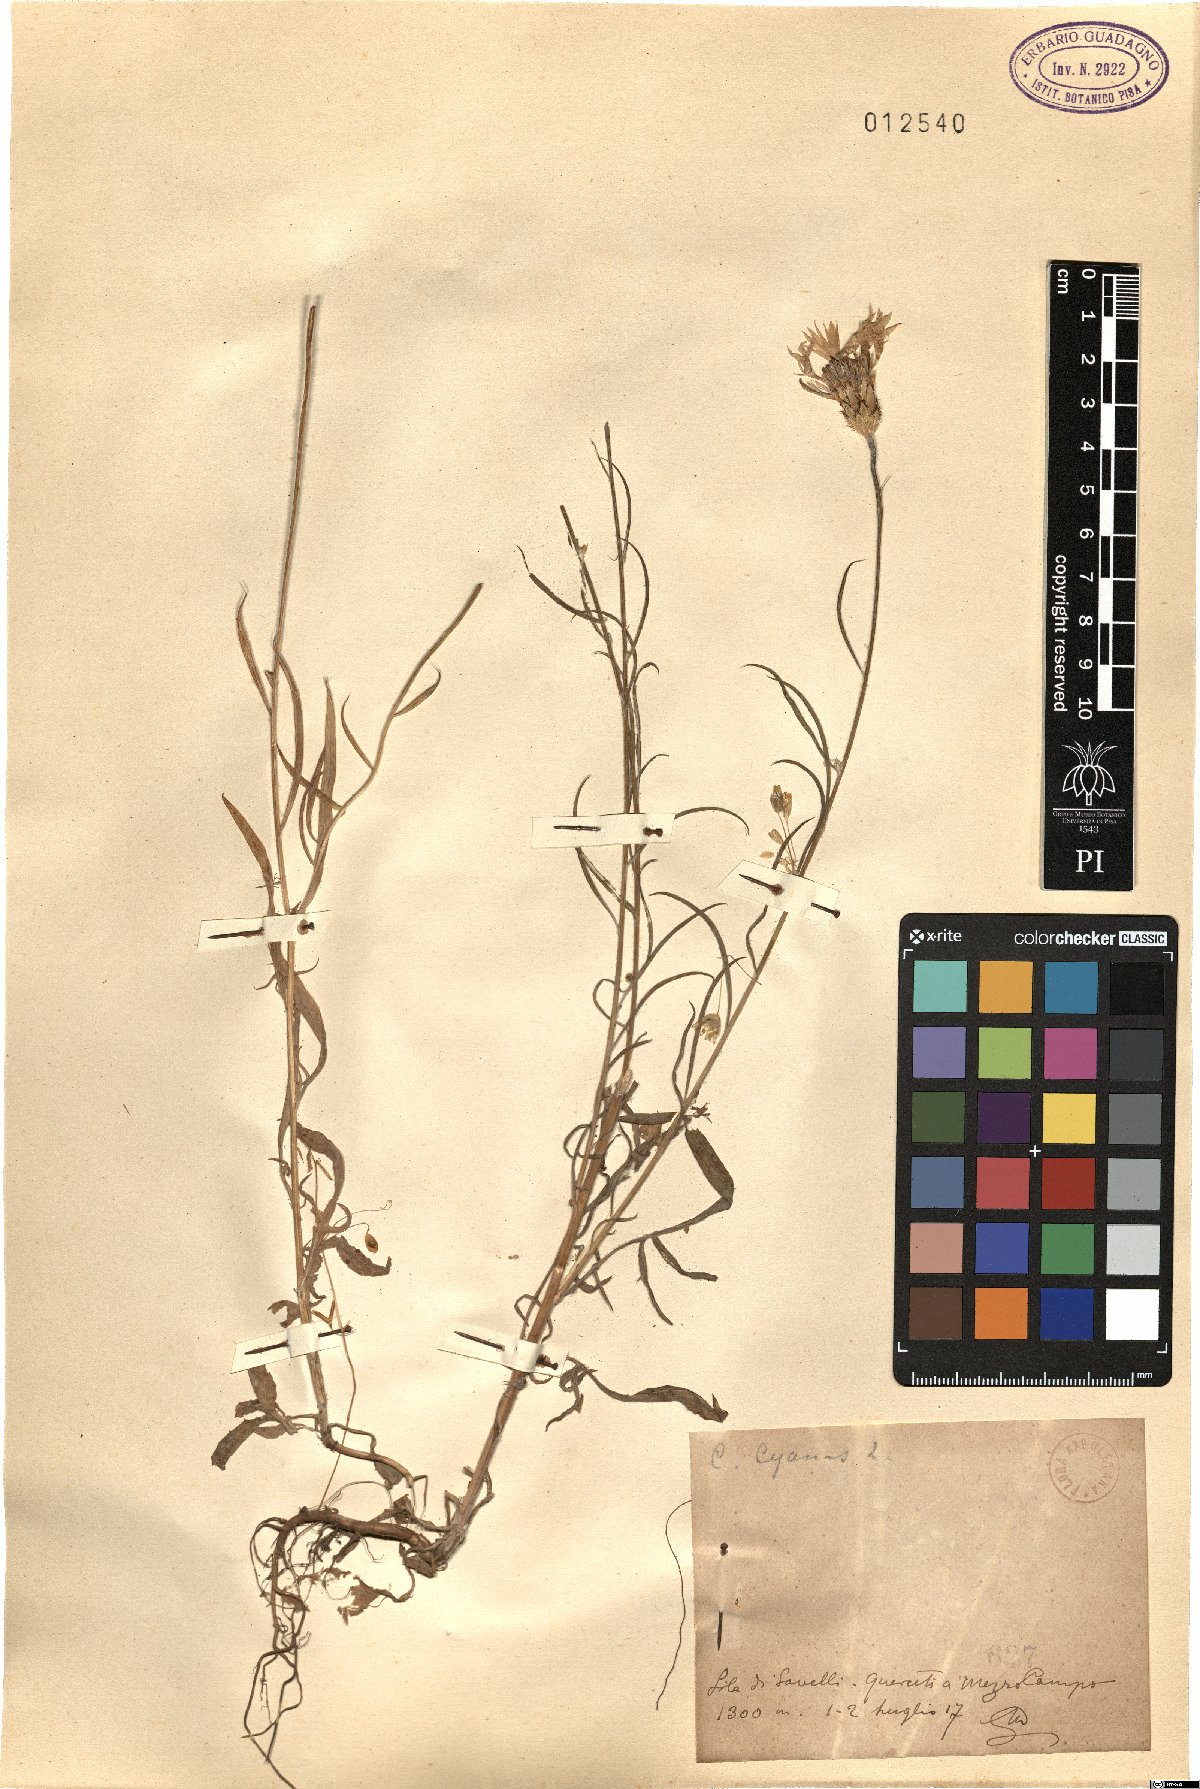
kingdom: Plantae
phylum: Tracheophyta
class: Magnoliopsida
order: Asterales
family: Asteraceae
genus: Centaurea
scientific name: Centaurea cyanus
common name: Cornflower
